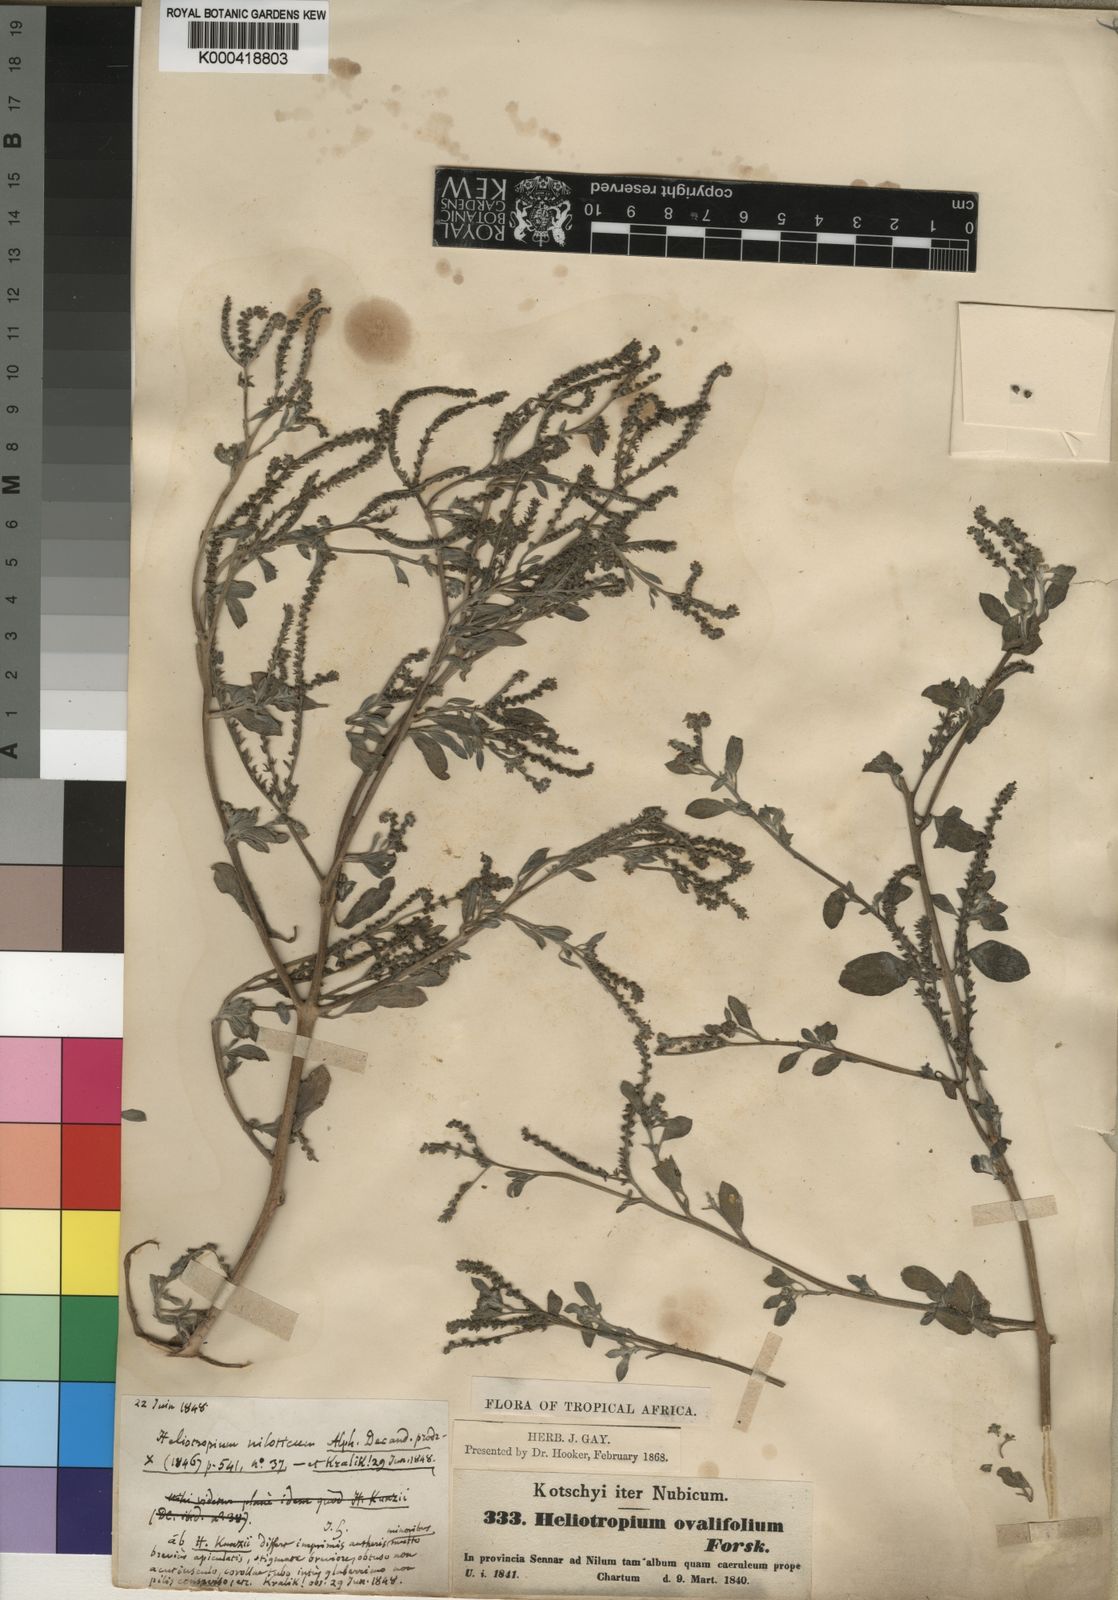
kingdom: Plantae
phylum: Tracheophyta
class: Magnoliopsida
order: Boraginales
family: Heliotropiaceae
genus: Euploca
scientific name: Euploca ovalifolia
